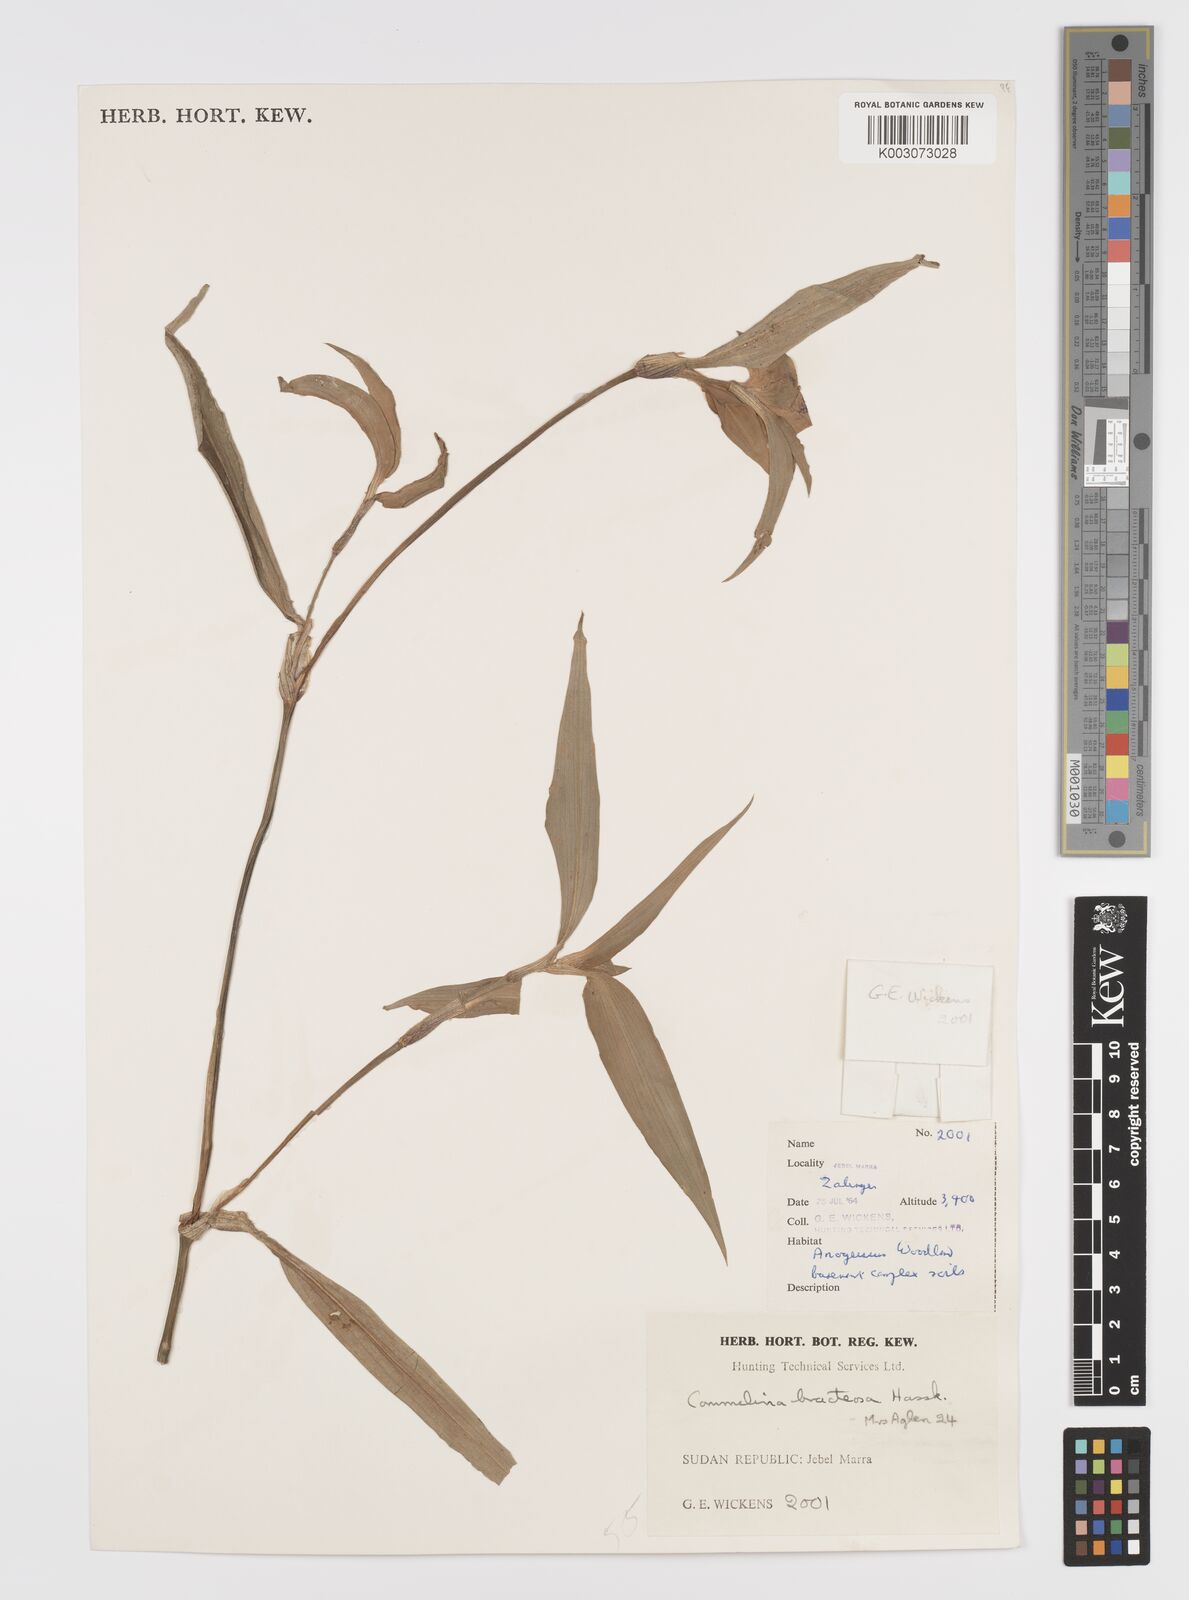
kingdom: Plantae
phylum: Tracheophyta
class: Liliopsida
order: Commelinales
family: Commelinaceae
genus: Commelina
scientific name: Commelina bracteosa
